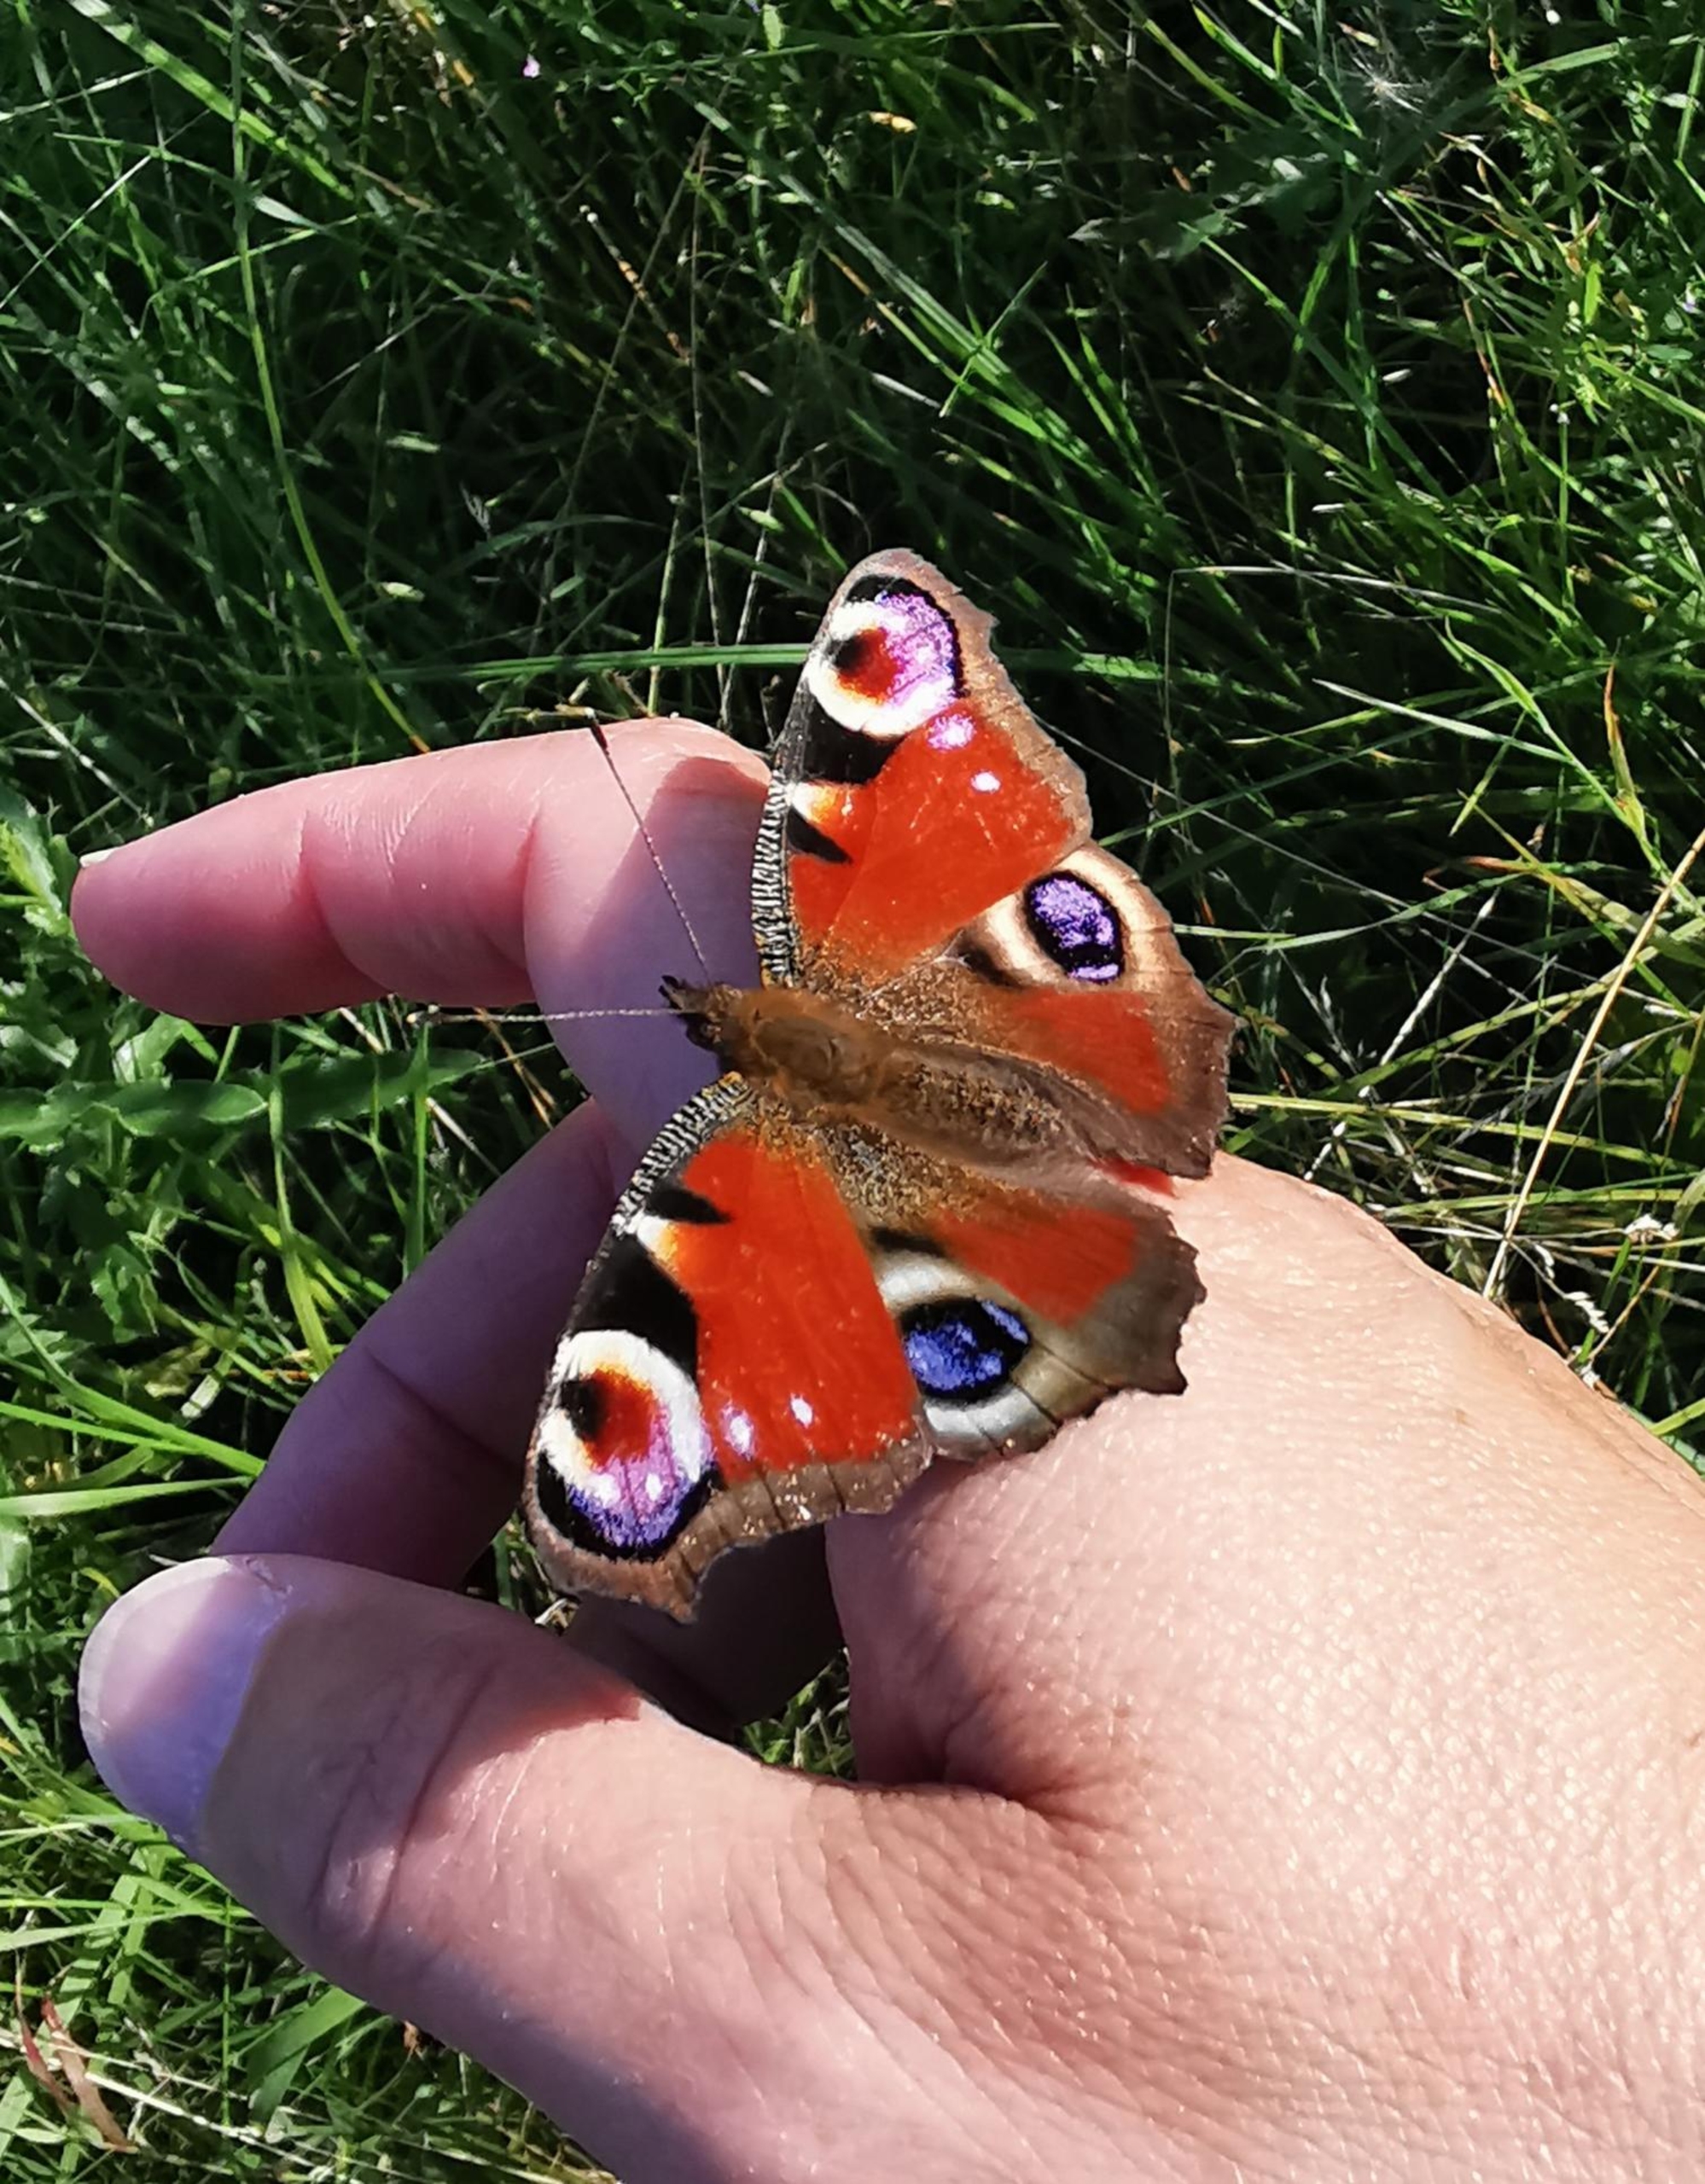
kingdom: Animalia
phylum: Arthropoda
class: Insecta
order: Lepidoptera
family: Nymphalidae
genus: Aglais
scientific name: Aglais io
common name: Dagpåfugleøje
